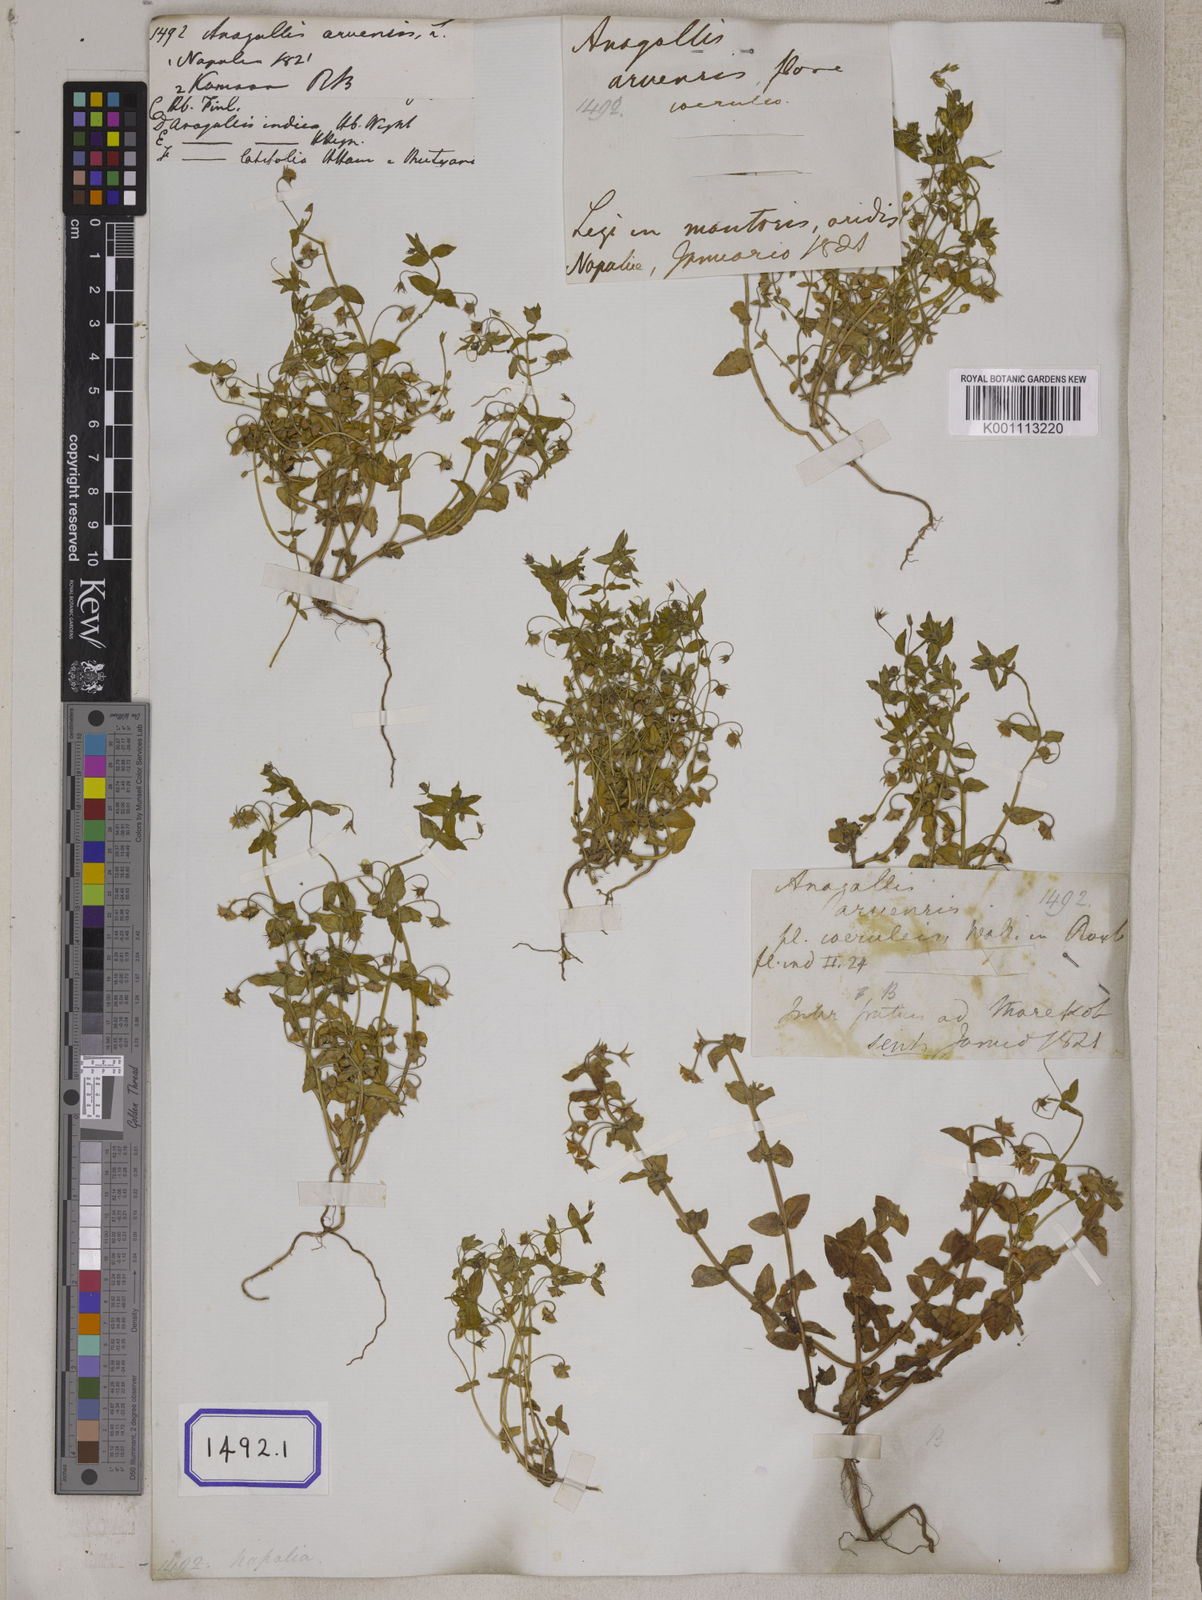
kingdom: Plantae
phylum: Tracheophyta
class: Magnoliopsida
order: Ericales
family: Primulaceae
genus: Lysimachia
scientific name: Lysimachia arvensis
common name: Scarlet pimpernel
